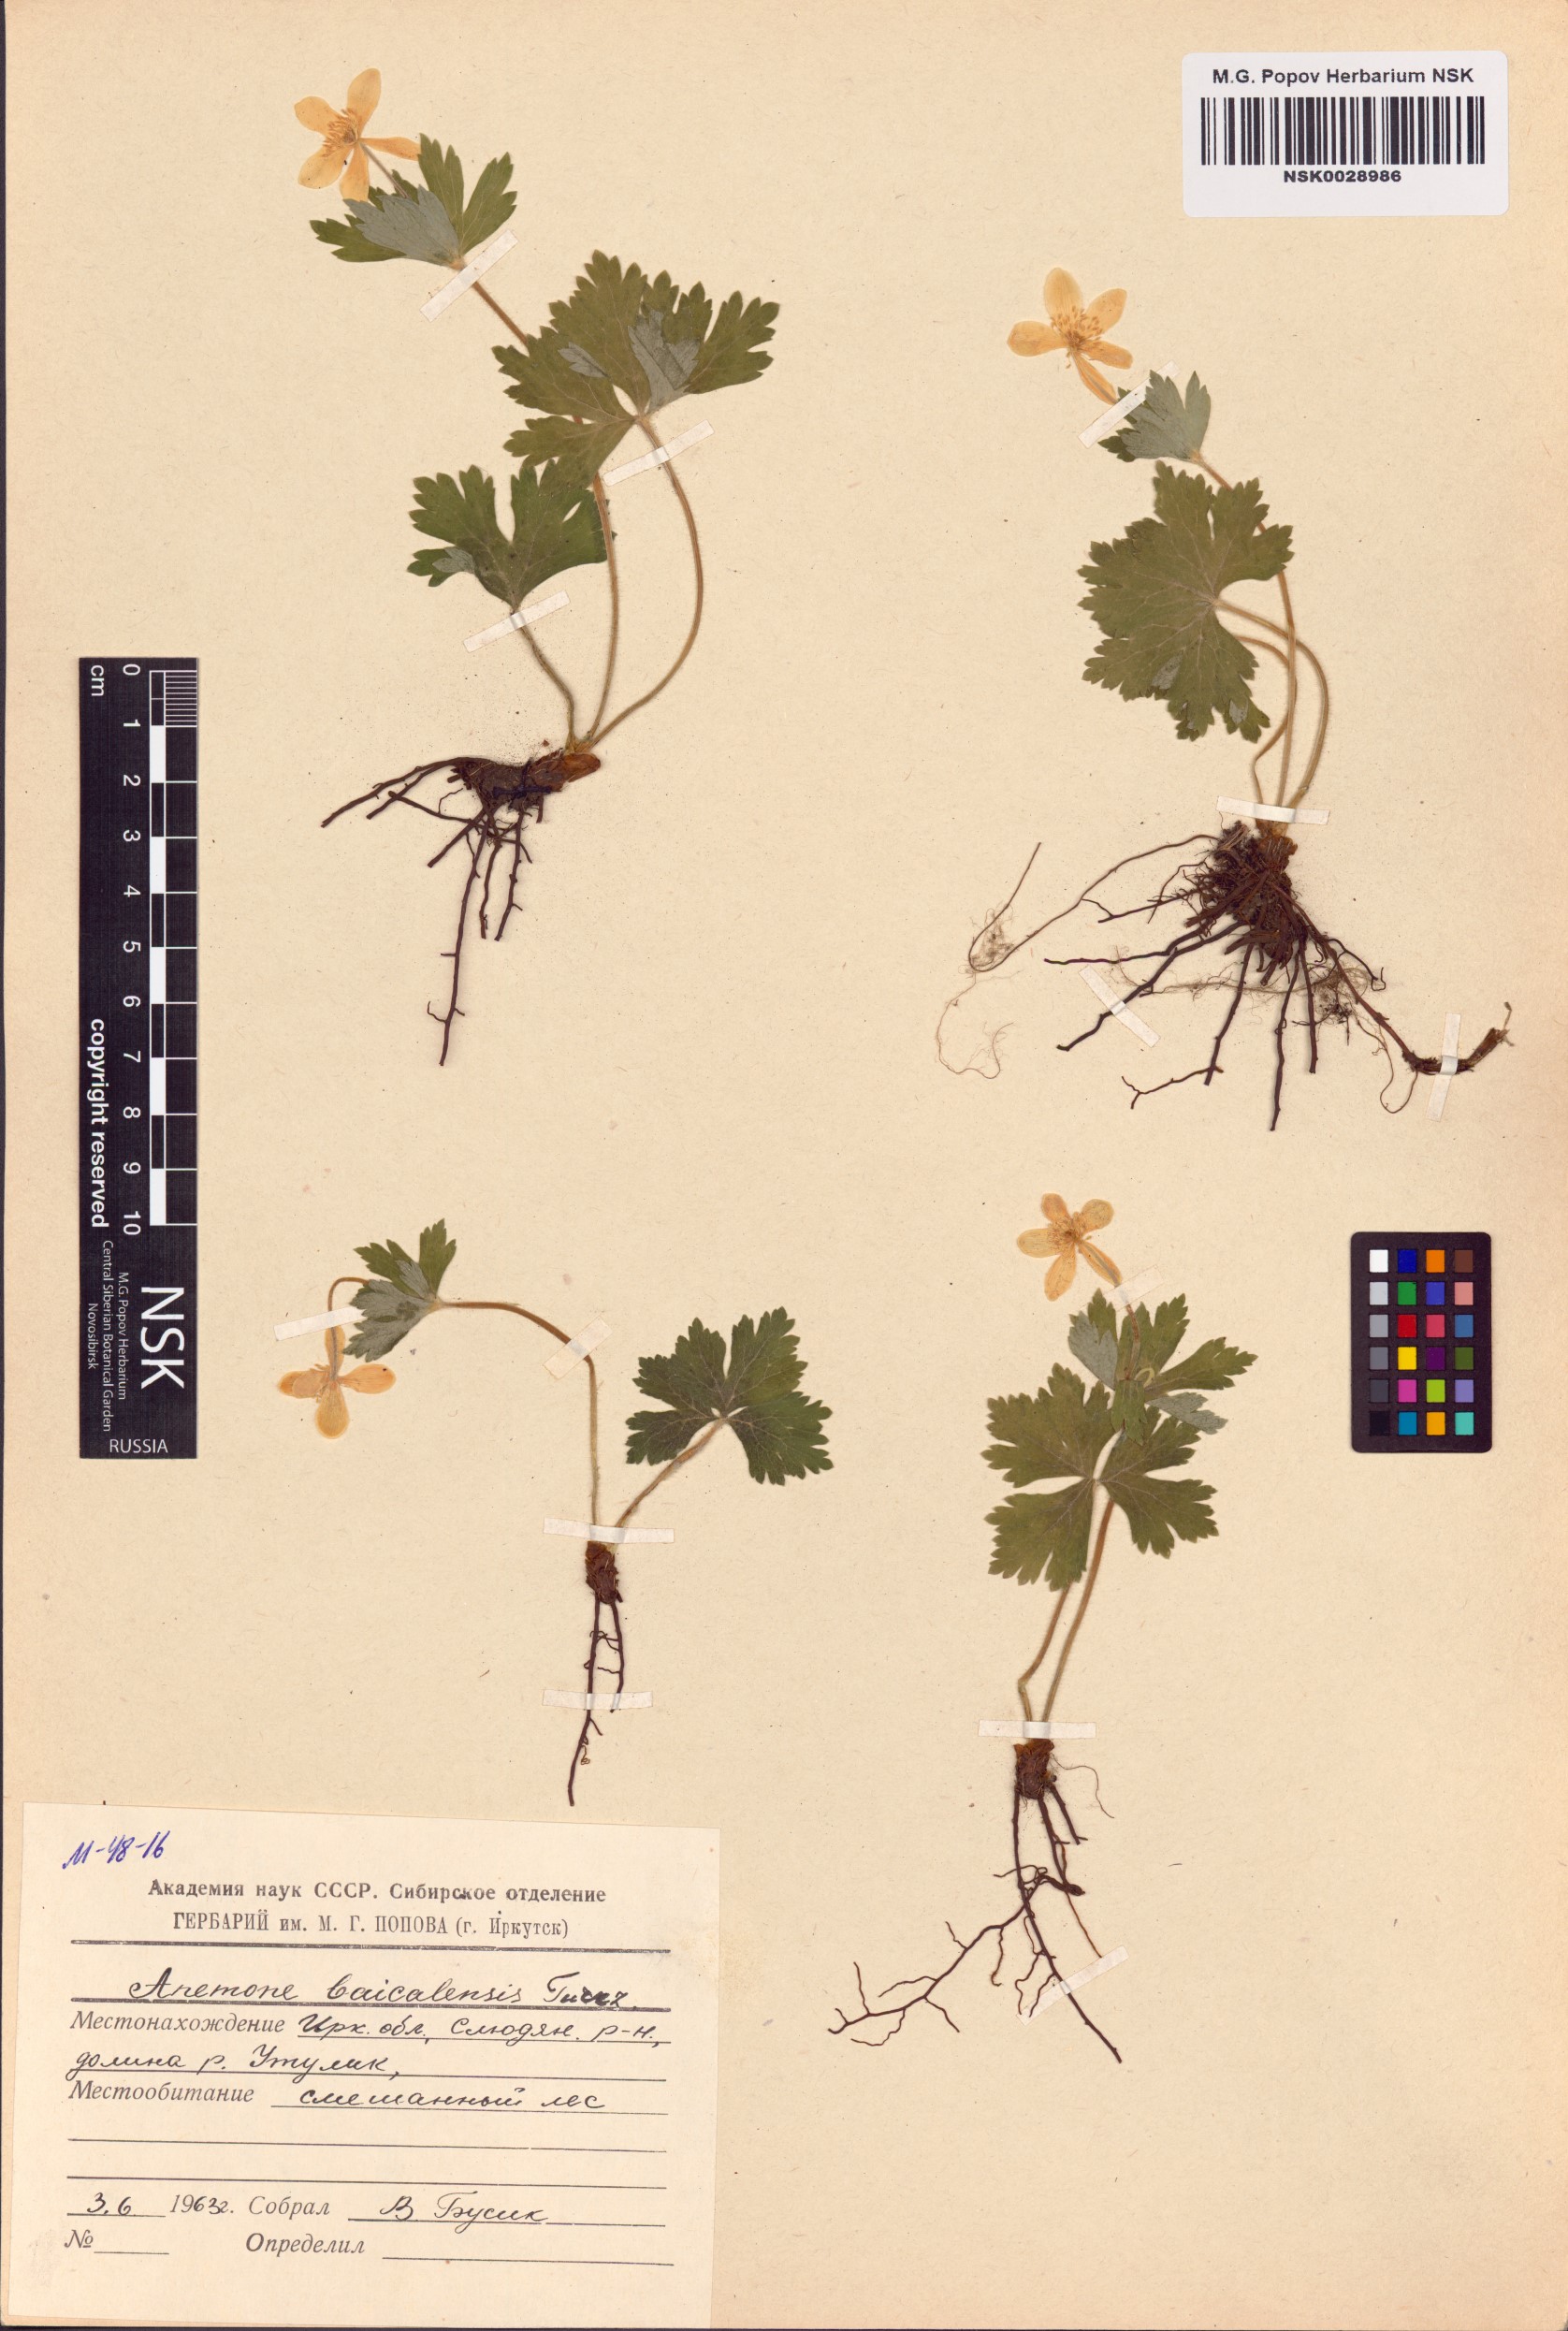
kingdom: Plantae
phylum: Tracheophyta
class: Magnoliopsida
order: Ranunculales
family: Ranunculaceae
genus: Anemonastrum
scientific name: Anemonastrum baicalense
